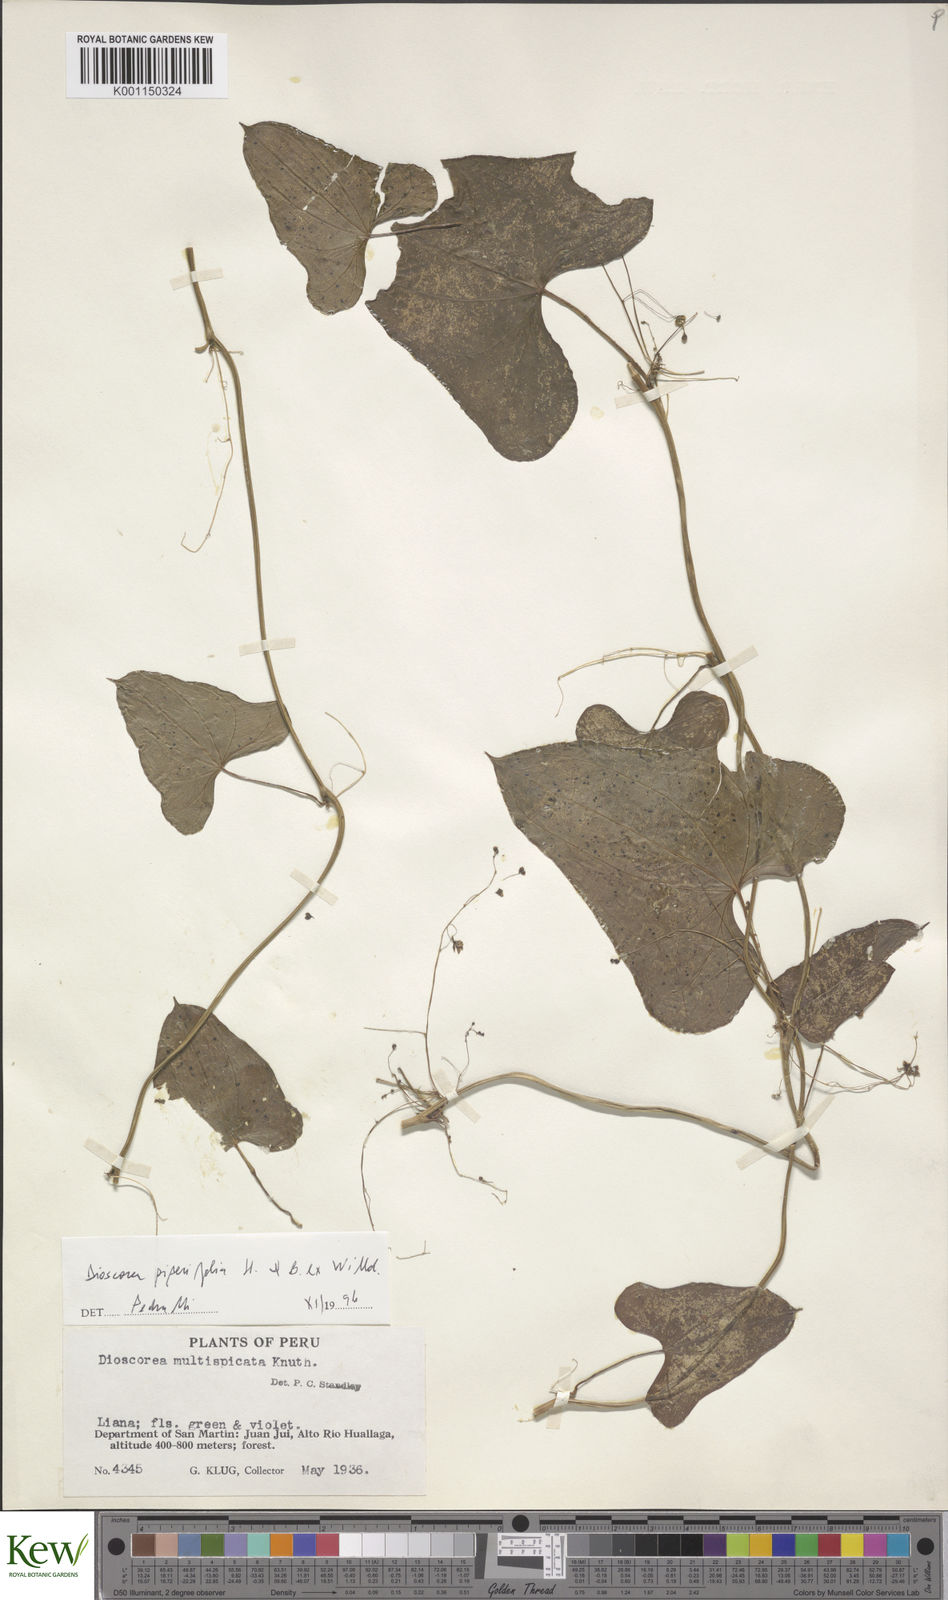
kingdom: Plantae
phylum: Tracheophyta
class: Liliopsida
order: Dioscoreales
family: Dioscoreaceae
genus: Dioscorea
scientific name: Dioscorea
